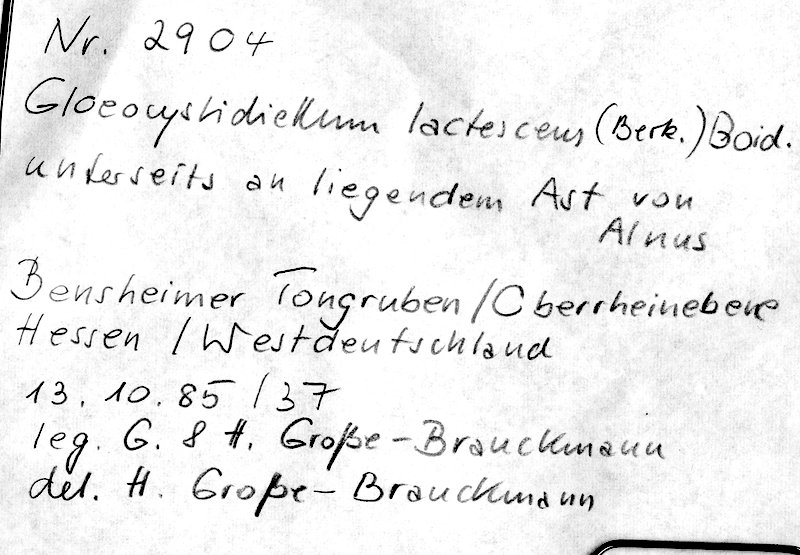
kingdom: Plantae
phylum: Tracheophyta
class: Magnoliopsida
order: Fagales
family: Betulaceae
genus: Alnus
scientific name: Alnus
